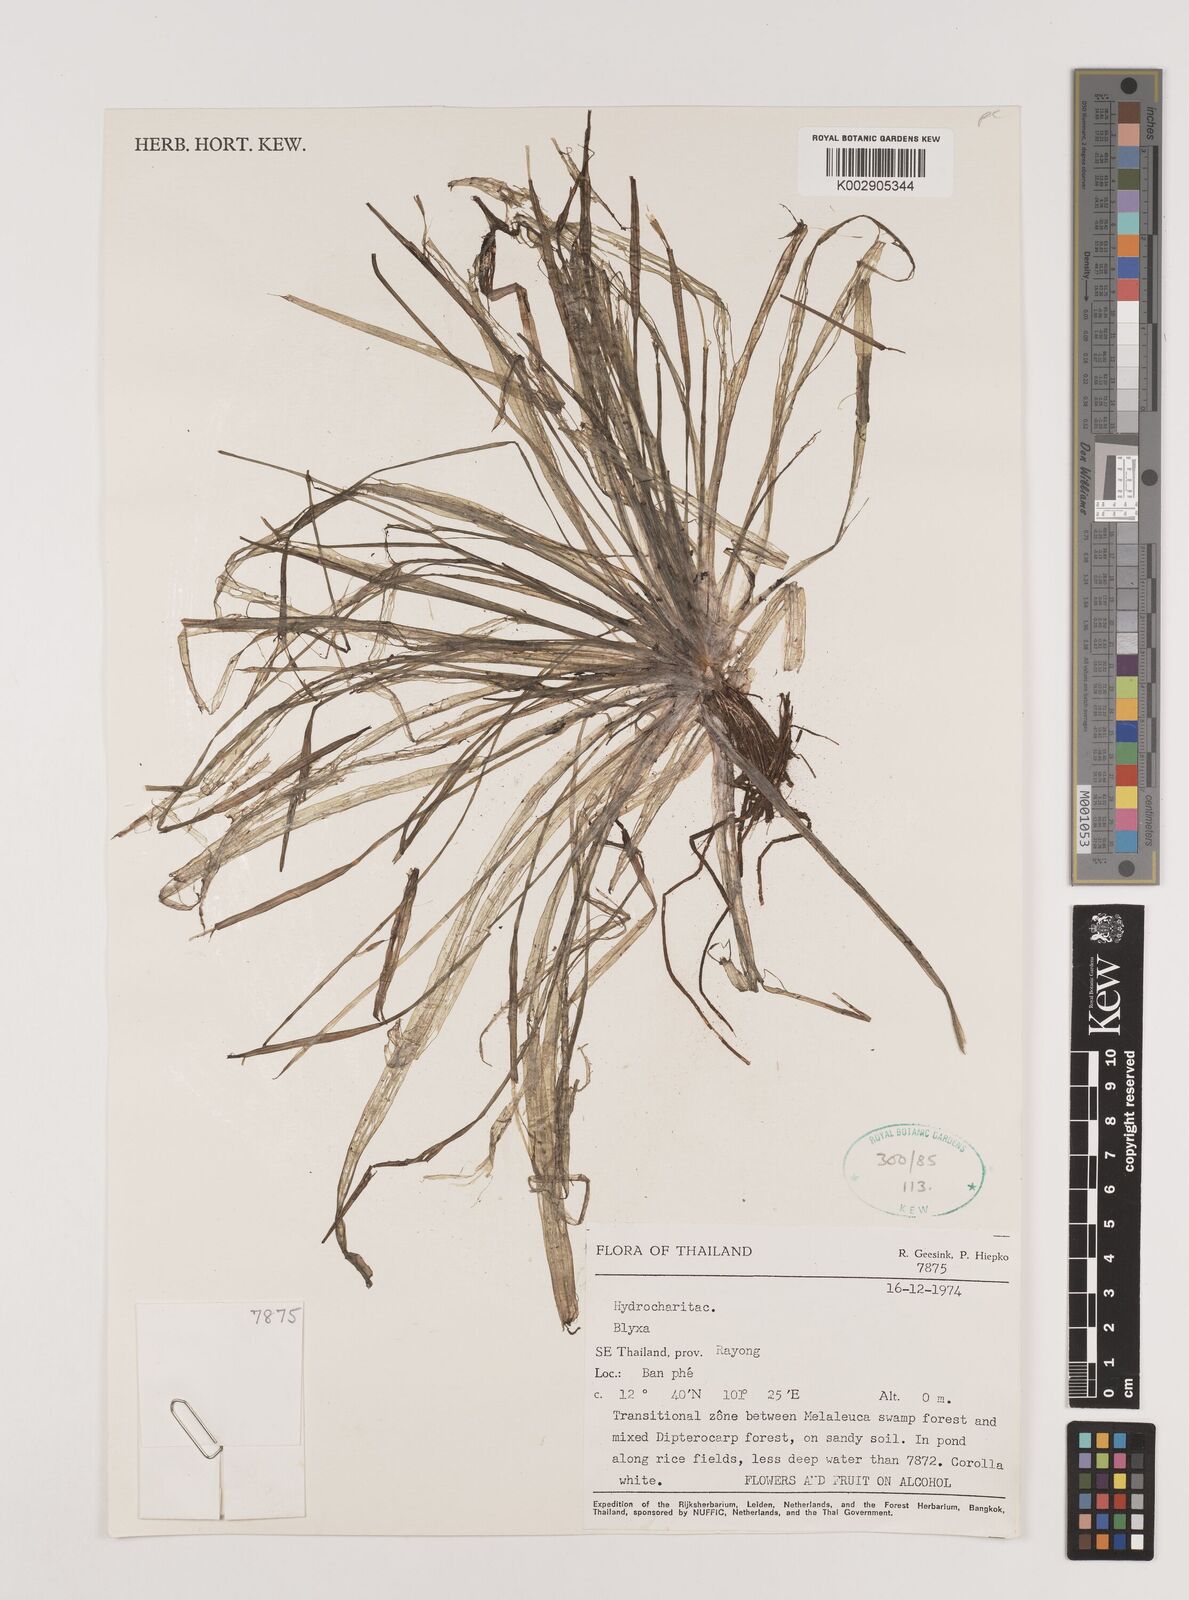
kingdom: Plantae
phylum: Tracheophyta
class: Liliopsida
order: Alismatales
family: Hydrocharitaceae
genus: Blyxa
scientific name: Blyxa
